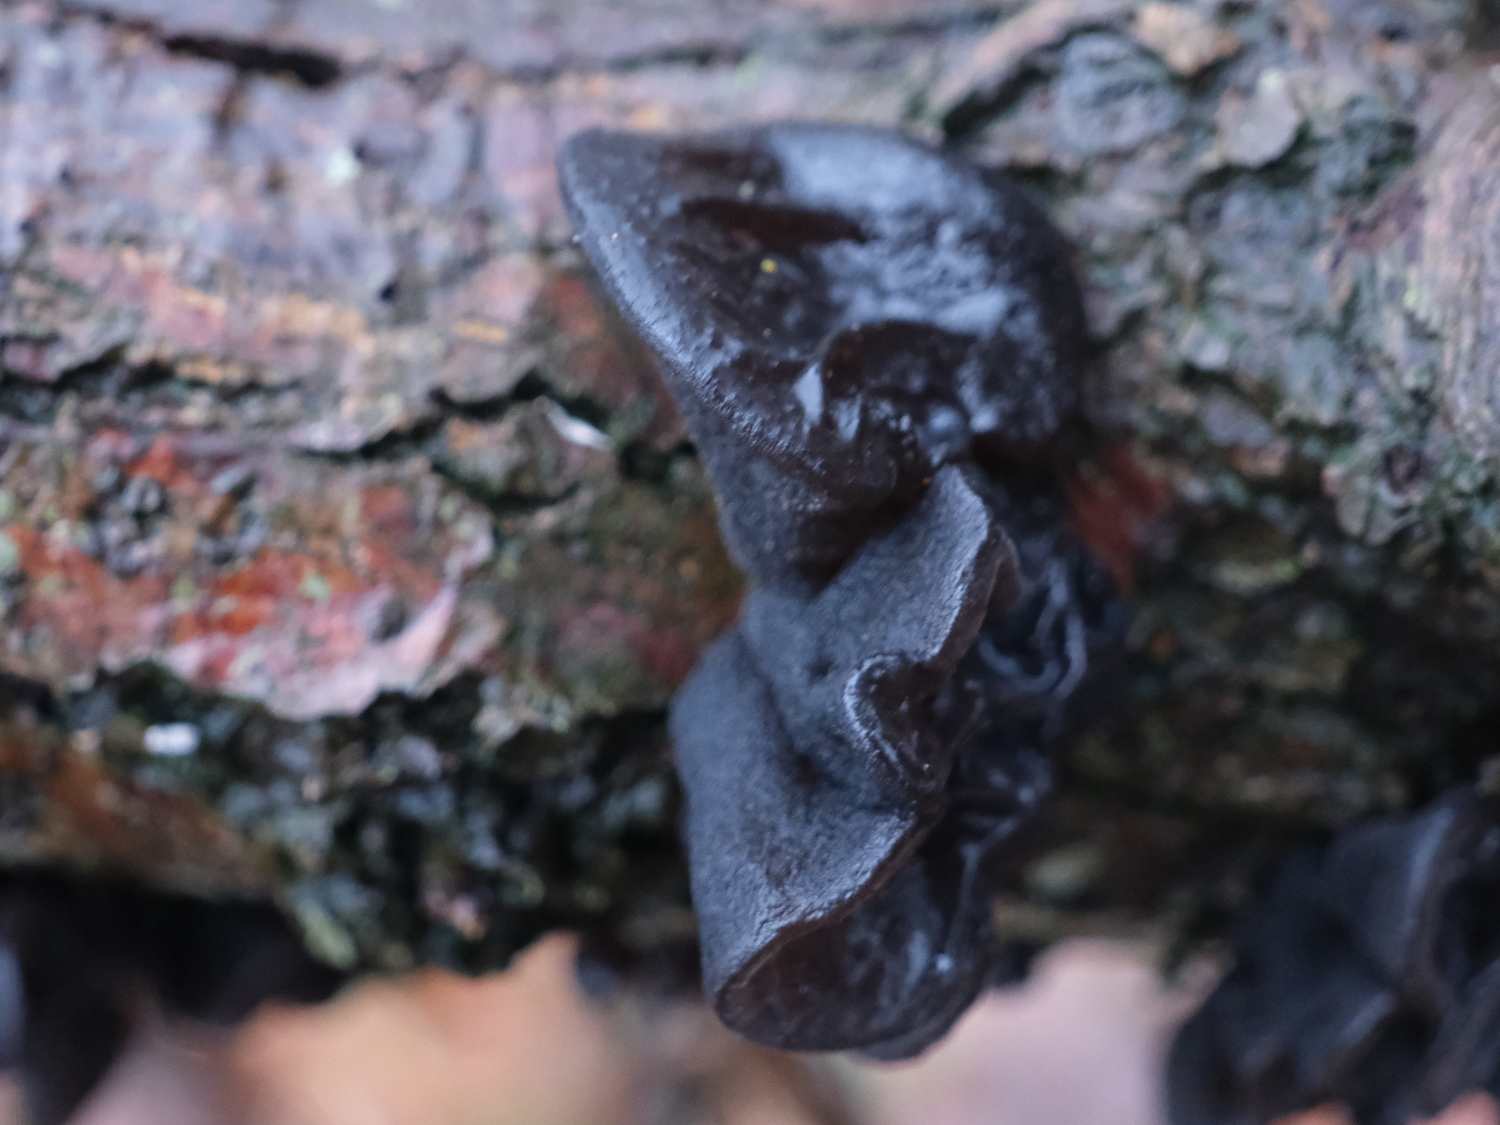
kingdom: Fungi
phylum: Basidiomycota
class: Agaricomycetes
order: Auriculariales
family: Auriculariaceae
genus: Exidia
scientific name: Exidia glandulosa
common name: ege-bævretop
